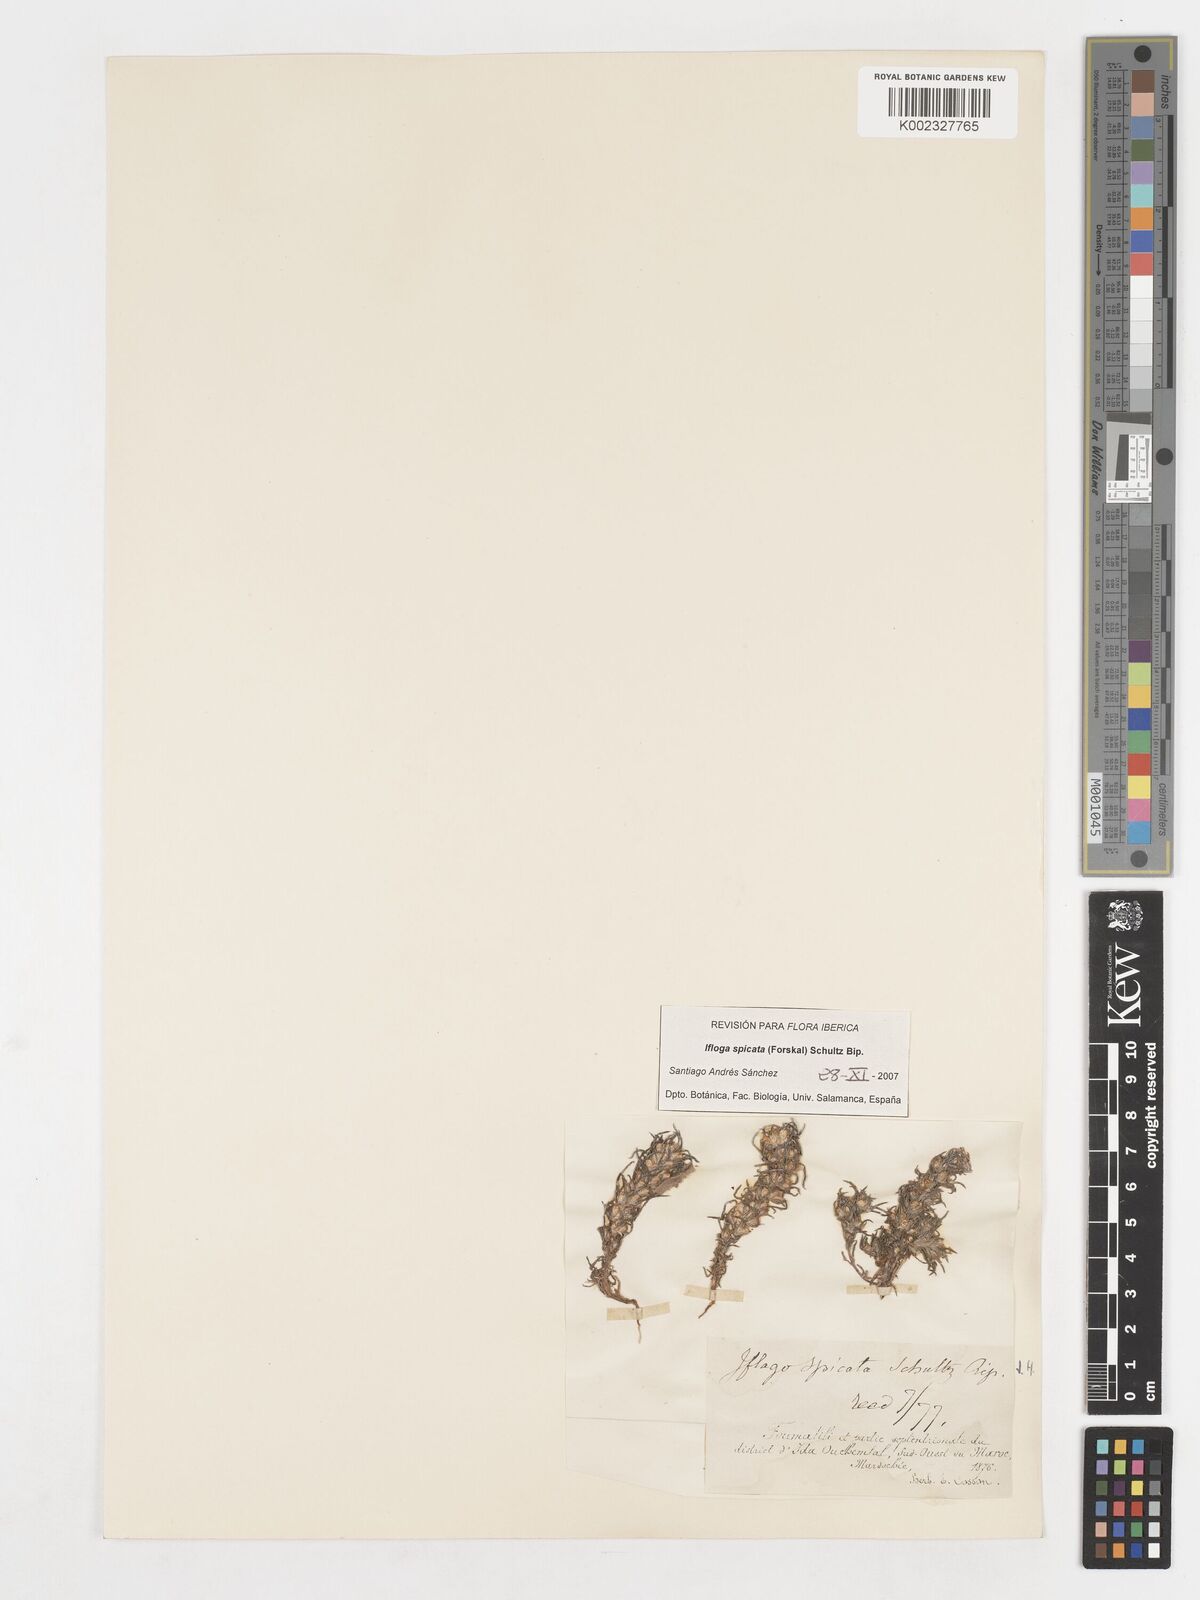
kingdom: Plantae
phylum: Tracheophyta
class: Magnoliopsida
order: Asterales
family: Asteraceae
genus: Ifloga
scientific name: Ifloga spicata
